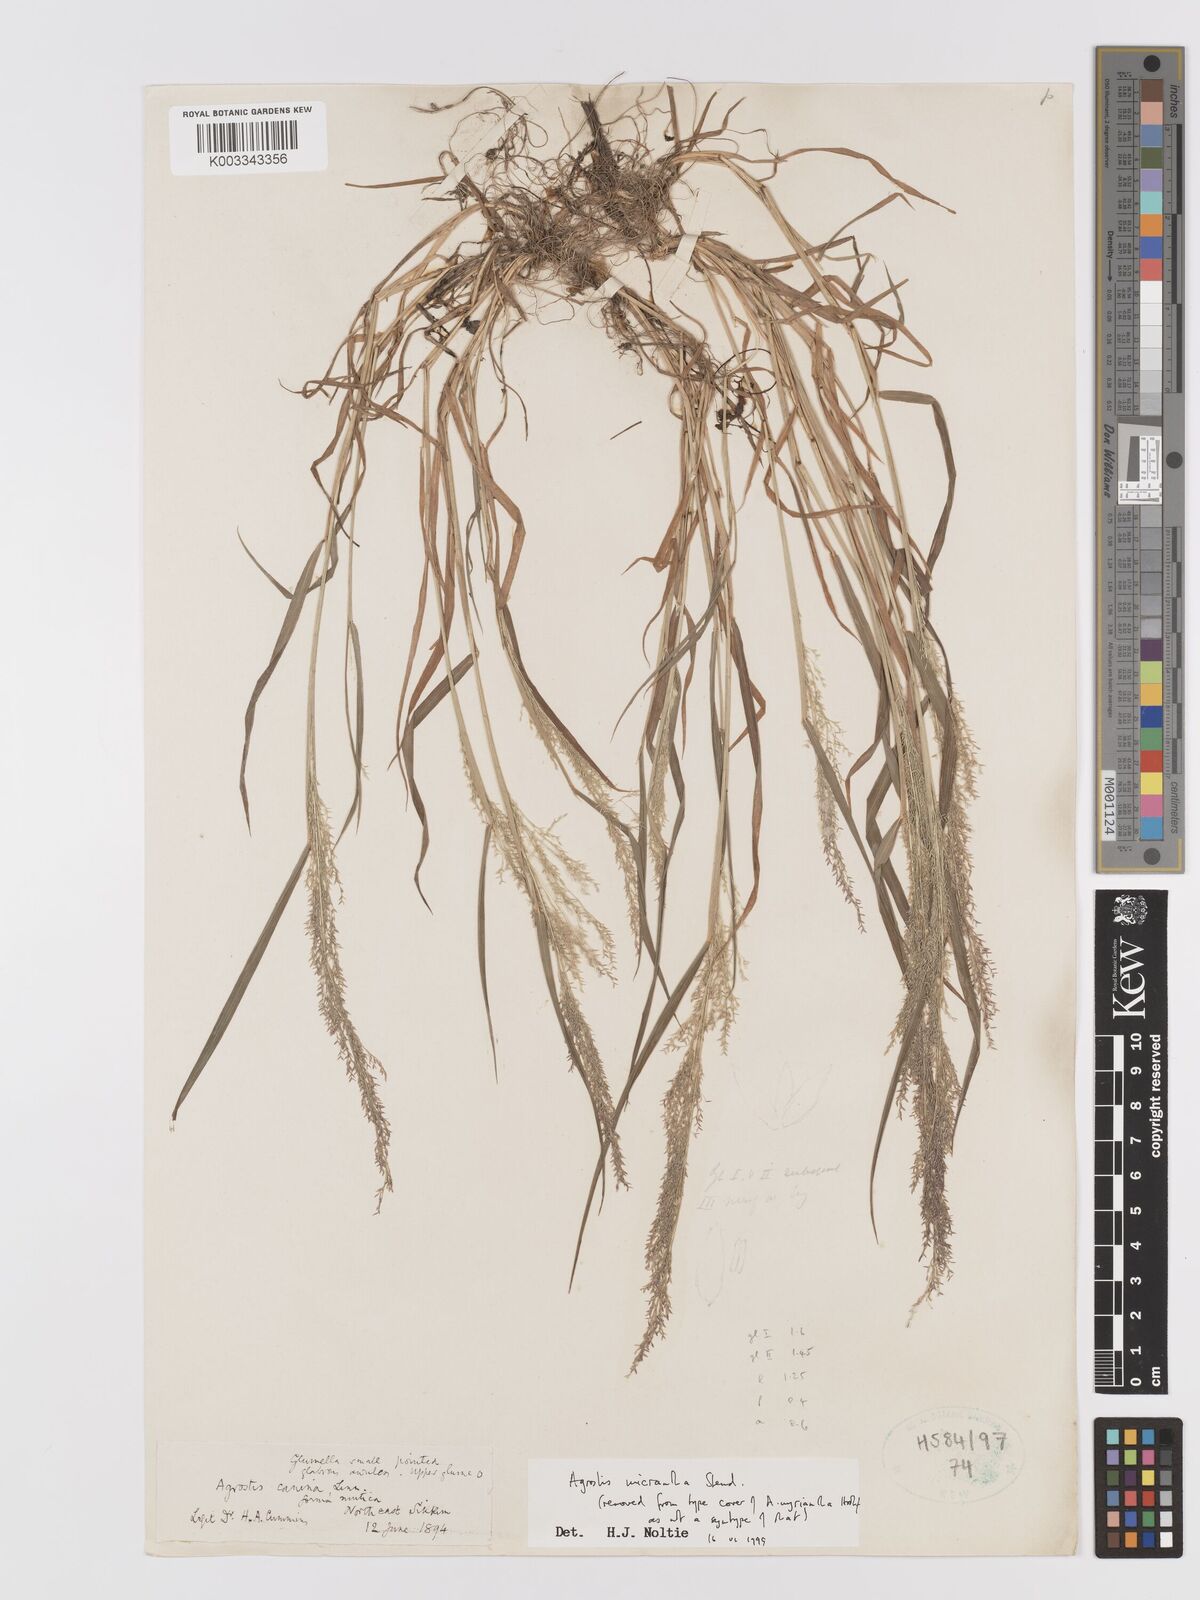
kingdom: Plantae
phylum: Tracheophyta
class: Liliopsida
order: Poales
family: Poaceae
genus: Agrostis
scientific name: Agrostis micrantha
